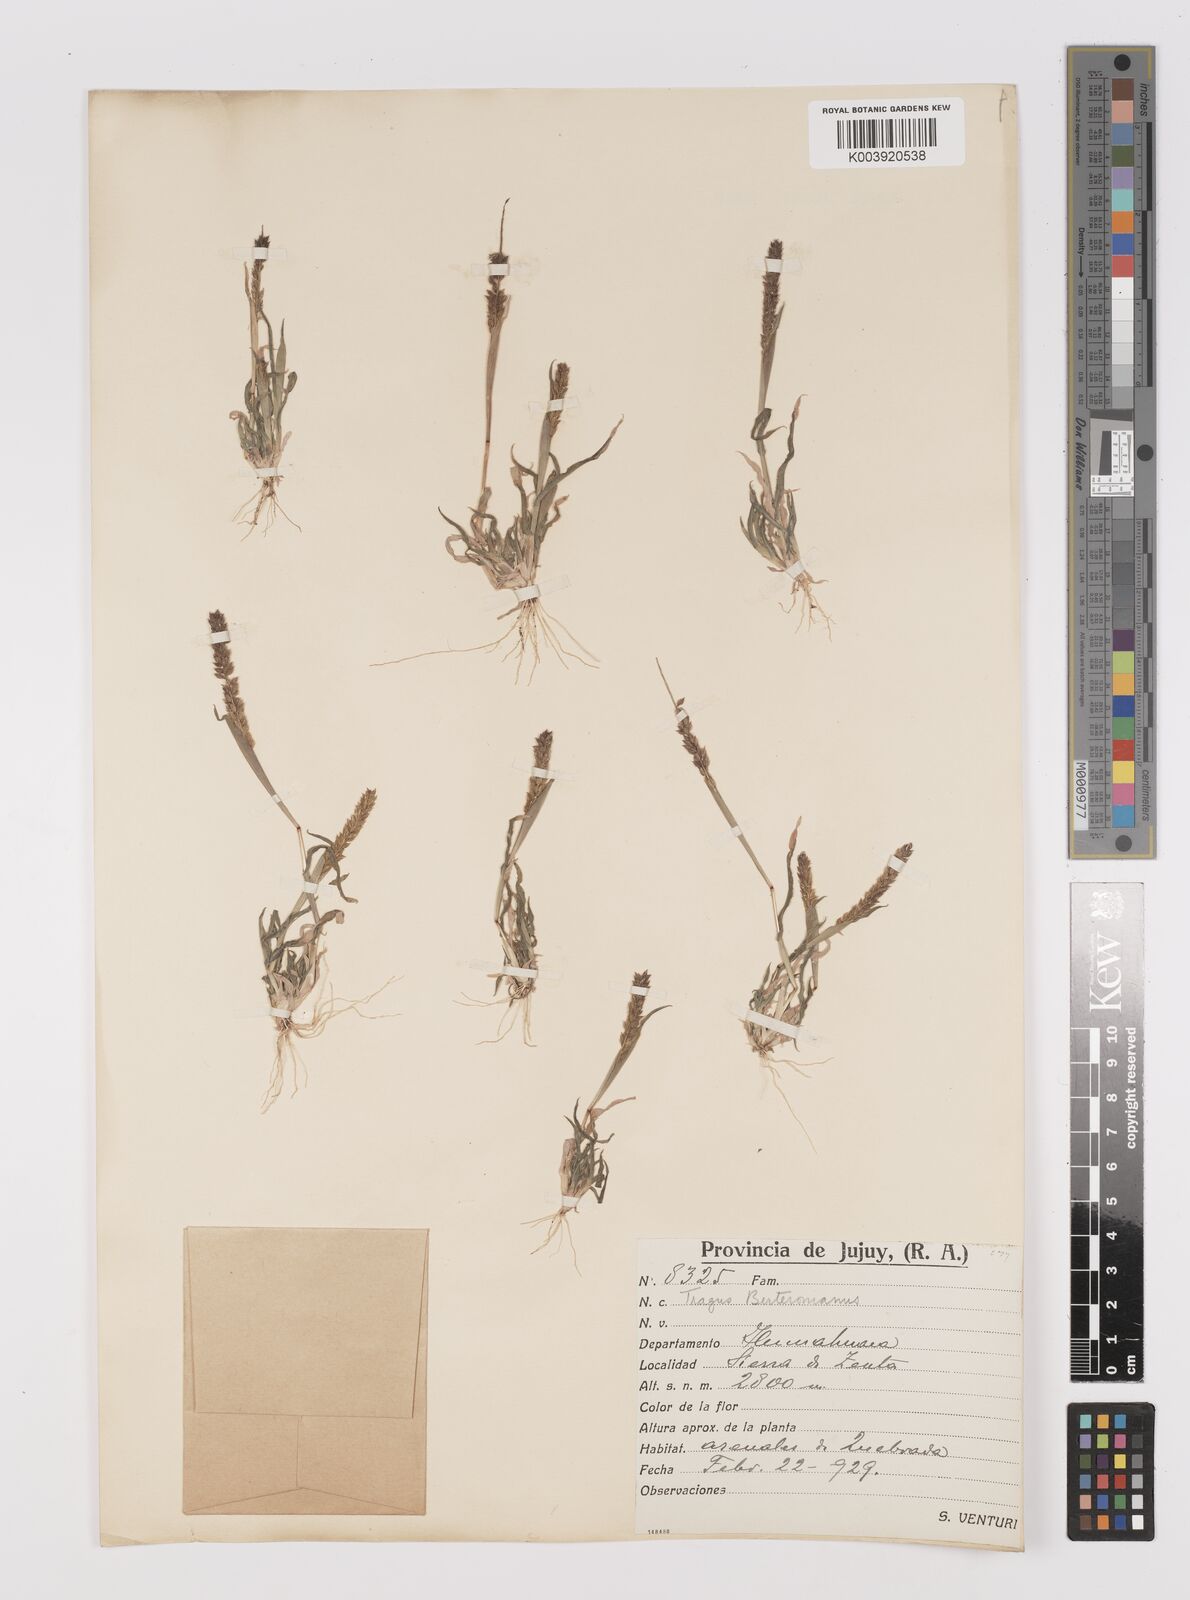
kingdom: Plantae
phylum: Tracheophyta
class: Liliopsida
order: Poales
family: Poaceae
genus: Tragus
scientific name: Tragus berteronianus
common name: African bur-grass
